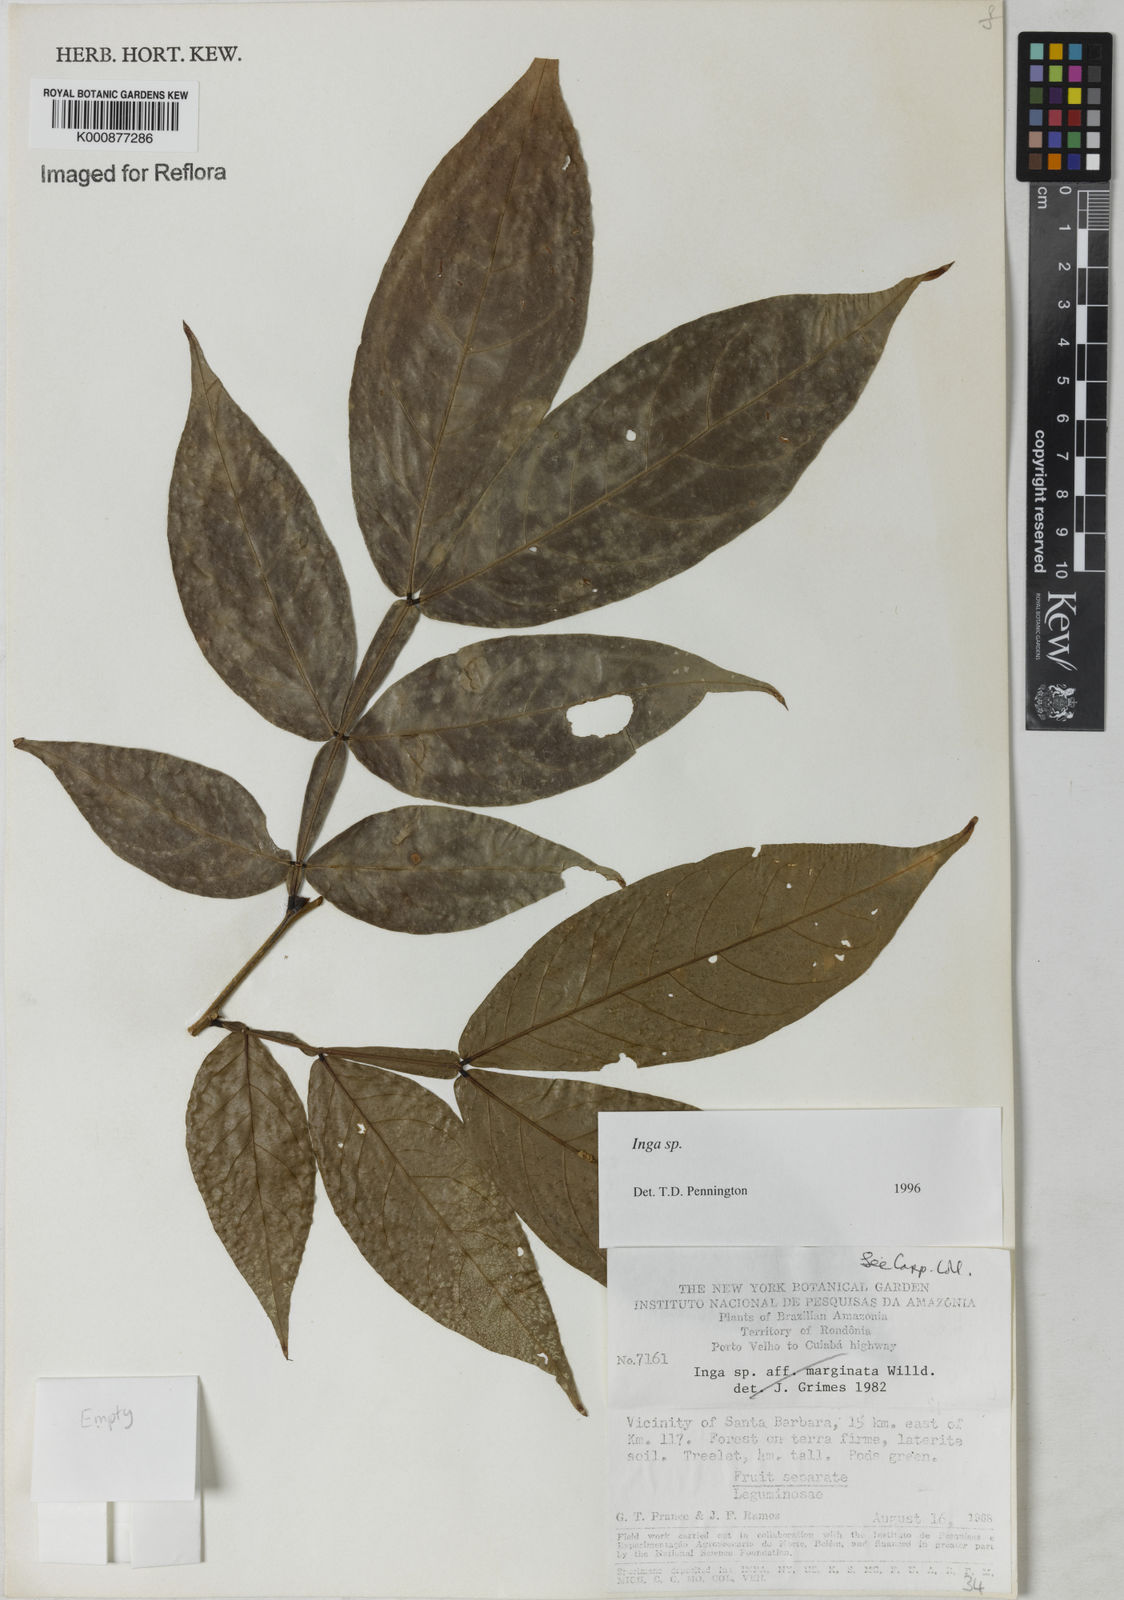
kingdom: Plantae
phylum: Tracheophyta
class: Magnoliopsida
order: Fabales
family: Fabaceae
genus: Inga
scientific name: Inga
